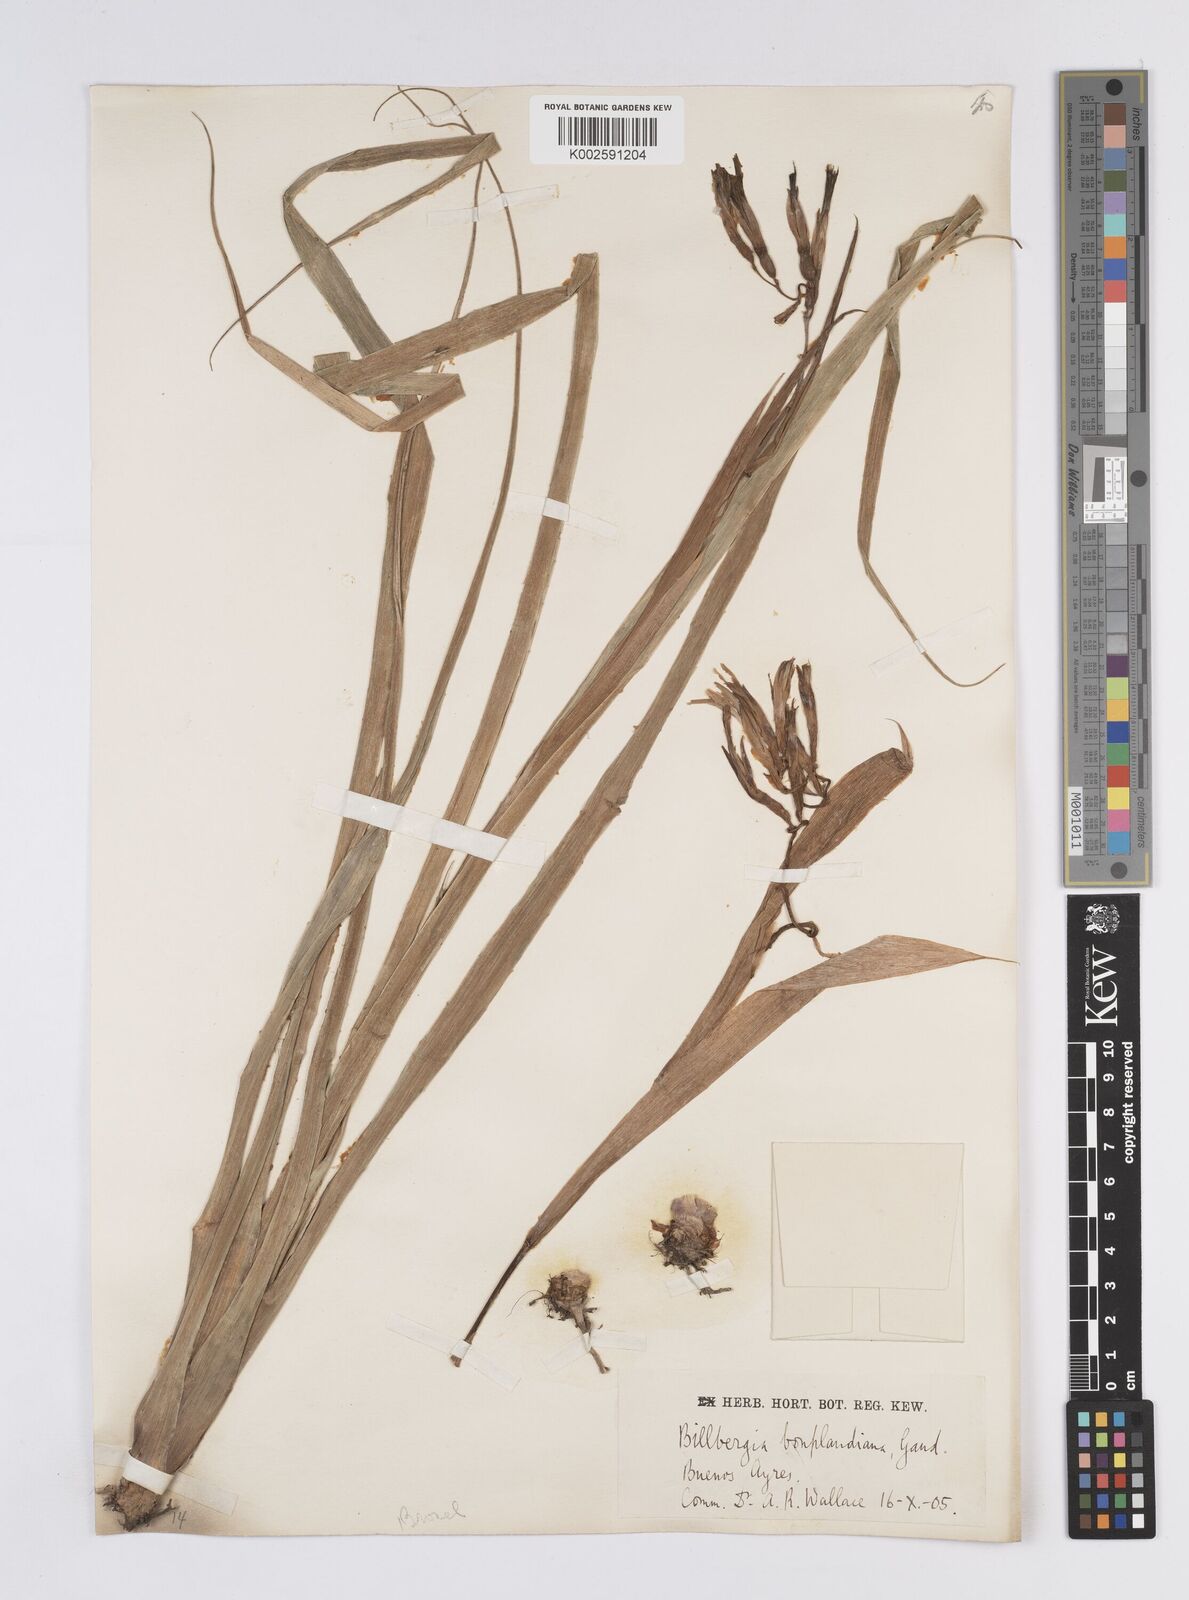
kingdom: Plantae
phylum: Tracheophyta
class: Liliopsida
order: Poales
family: Bromeliaceae
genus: Billbergia
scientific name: Billbergia nutans
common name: Friendship-plant
